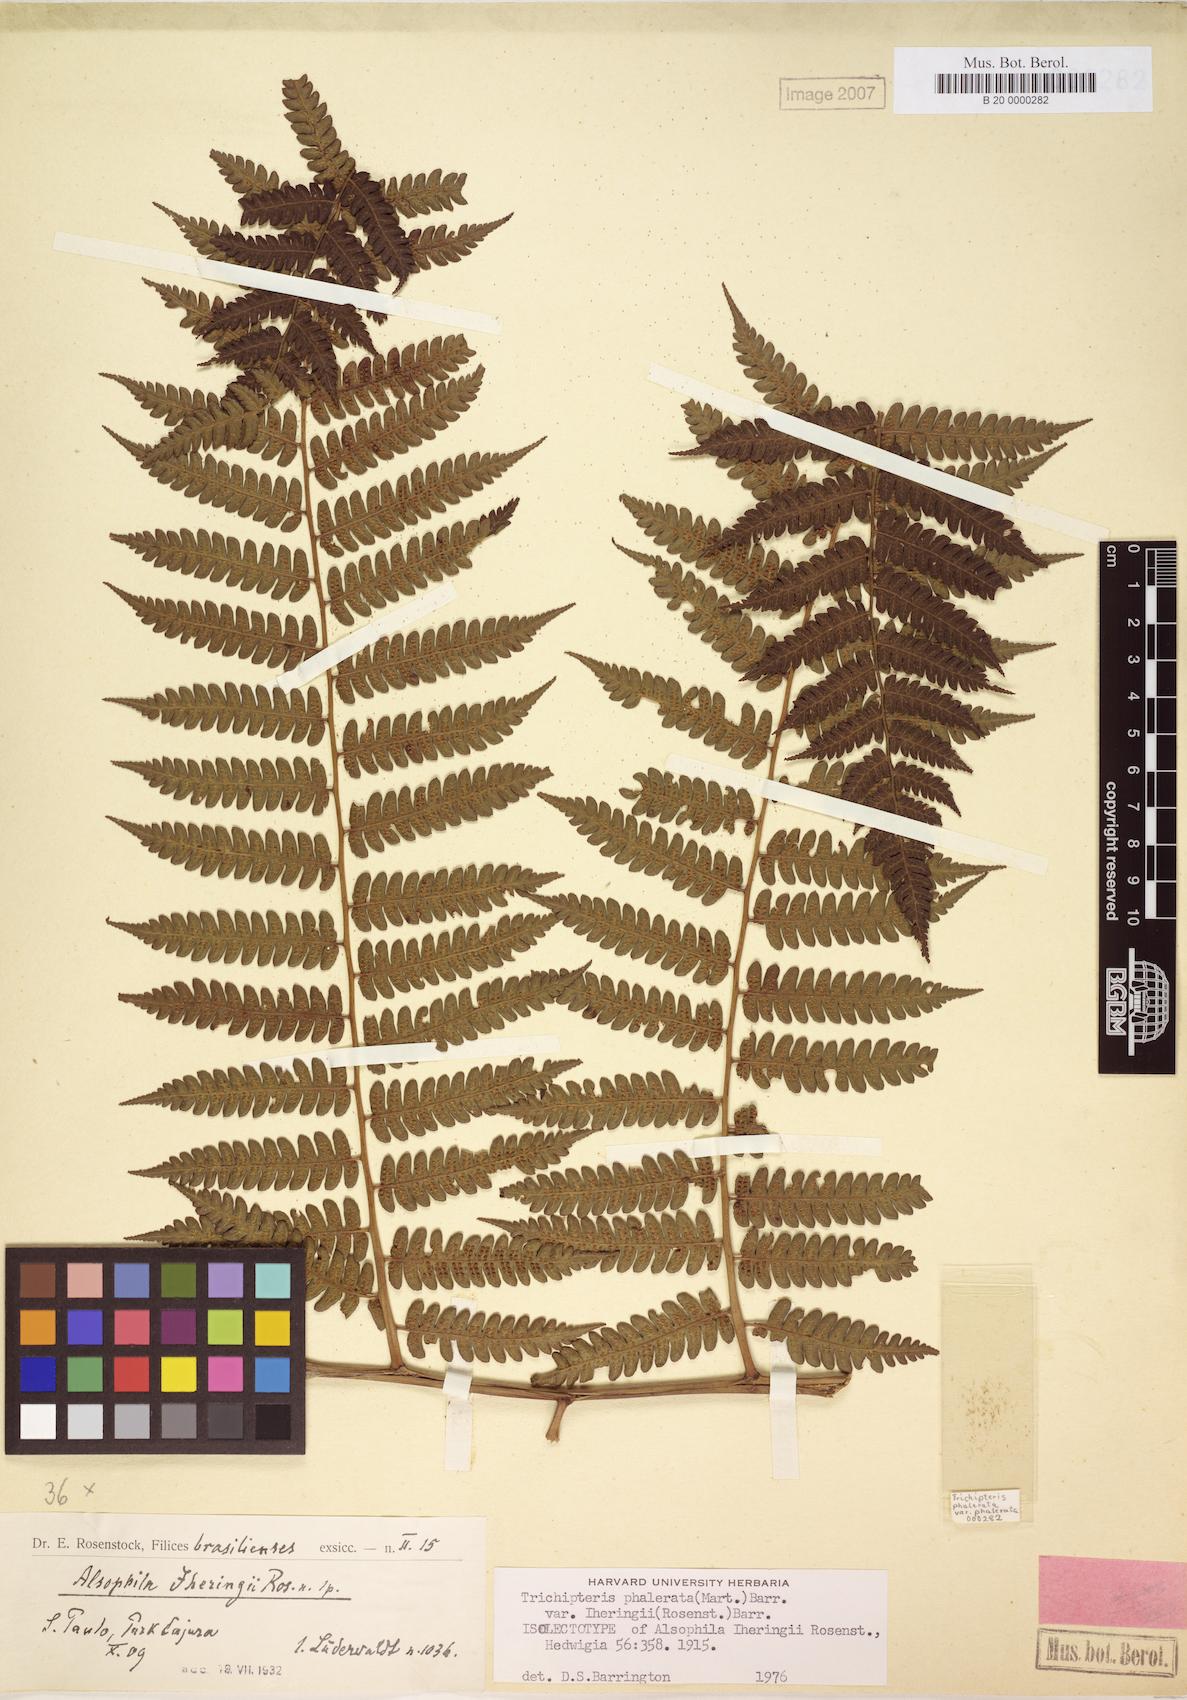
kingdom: Plantae
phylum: Tracheophyta
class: Polypodiopsida
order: Cyatheales
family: Cyatheaceae
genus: Cyathea
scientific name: Cyathea iheringii
